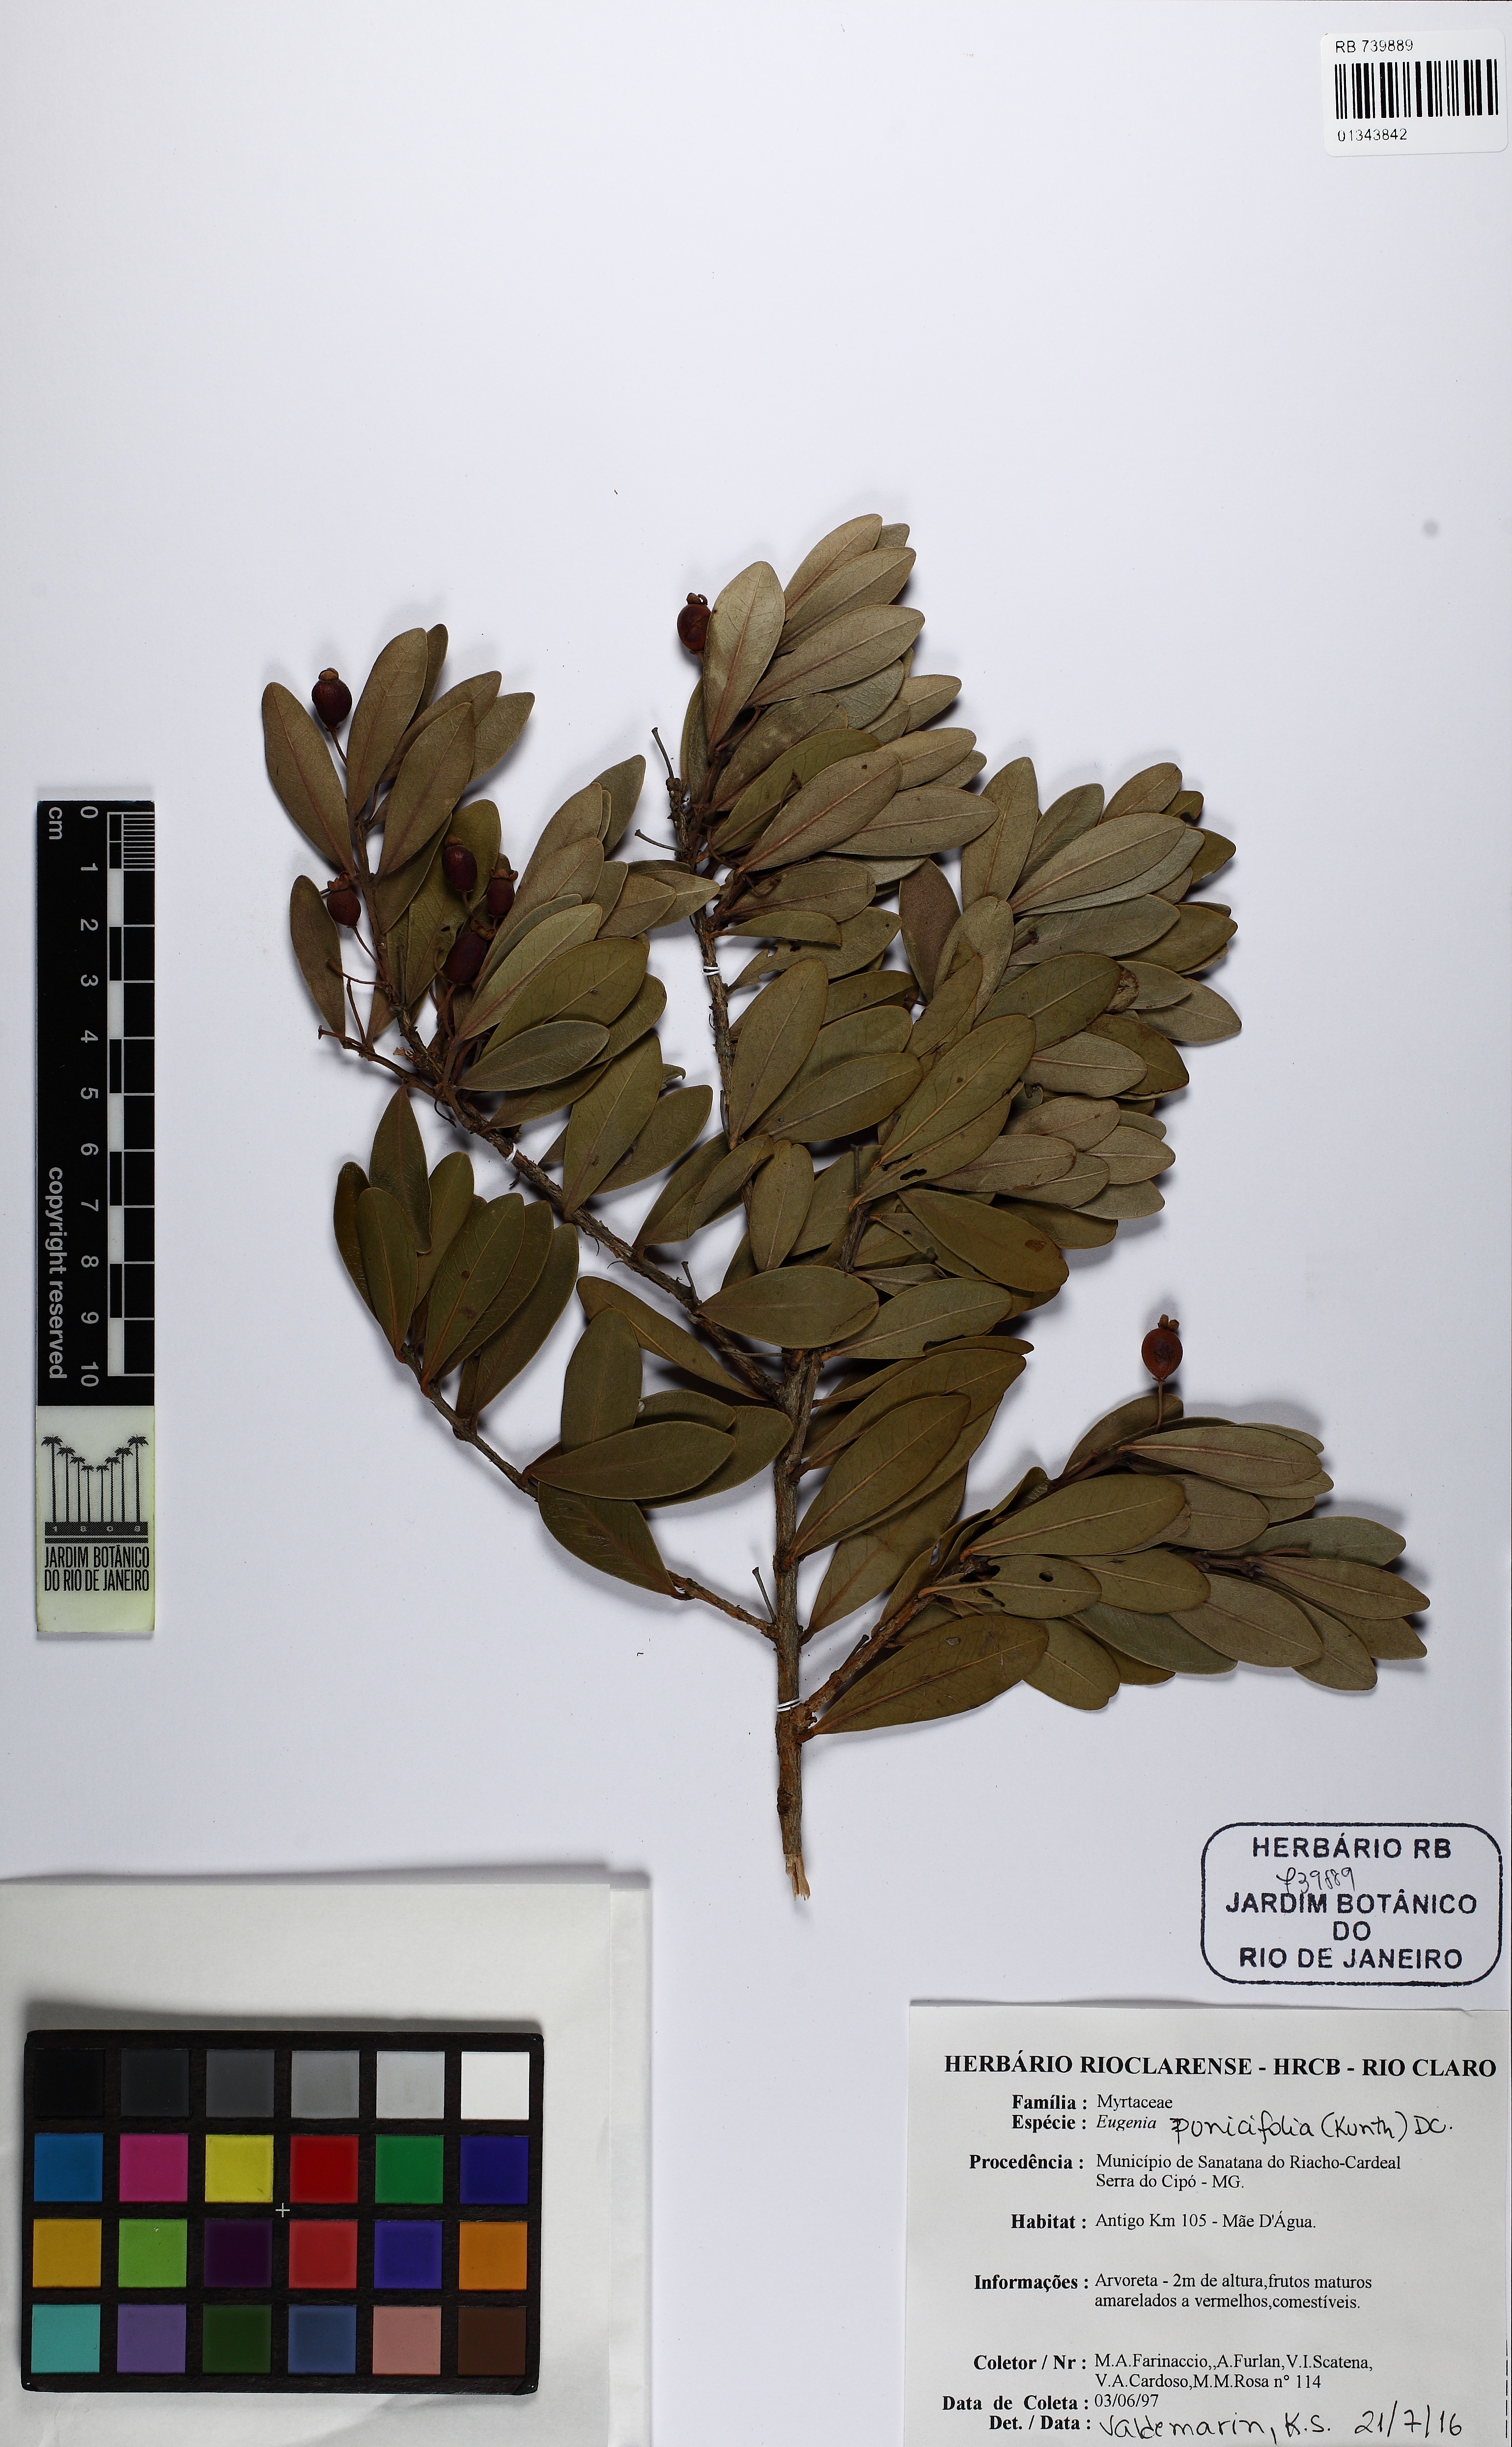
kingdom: Plantae
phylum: Tracheophyta
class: Magnoliopsida
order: Myrtales
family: Myrtaceae
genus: Eugenia
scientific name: Eugenia punicifolia
